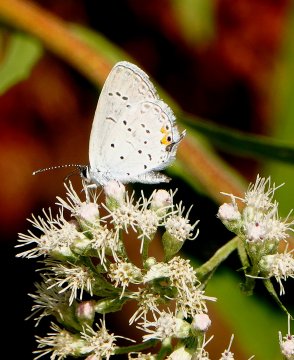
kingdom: Animalia
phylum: Arthropoda
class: Insecta
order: Lepidoptera
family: Lycaenidae
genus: Elkalyce
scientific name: Elkalyce comyntas
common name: Eastern Tailed-Blue
